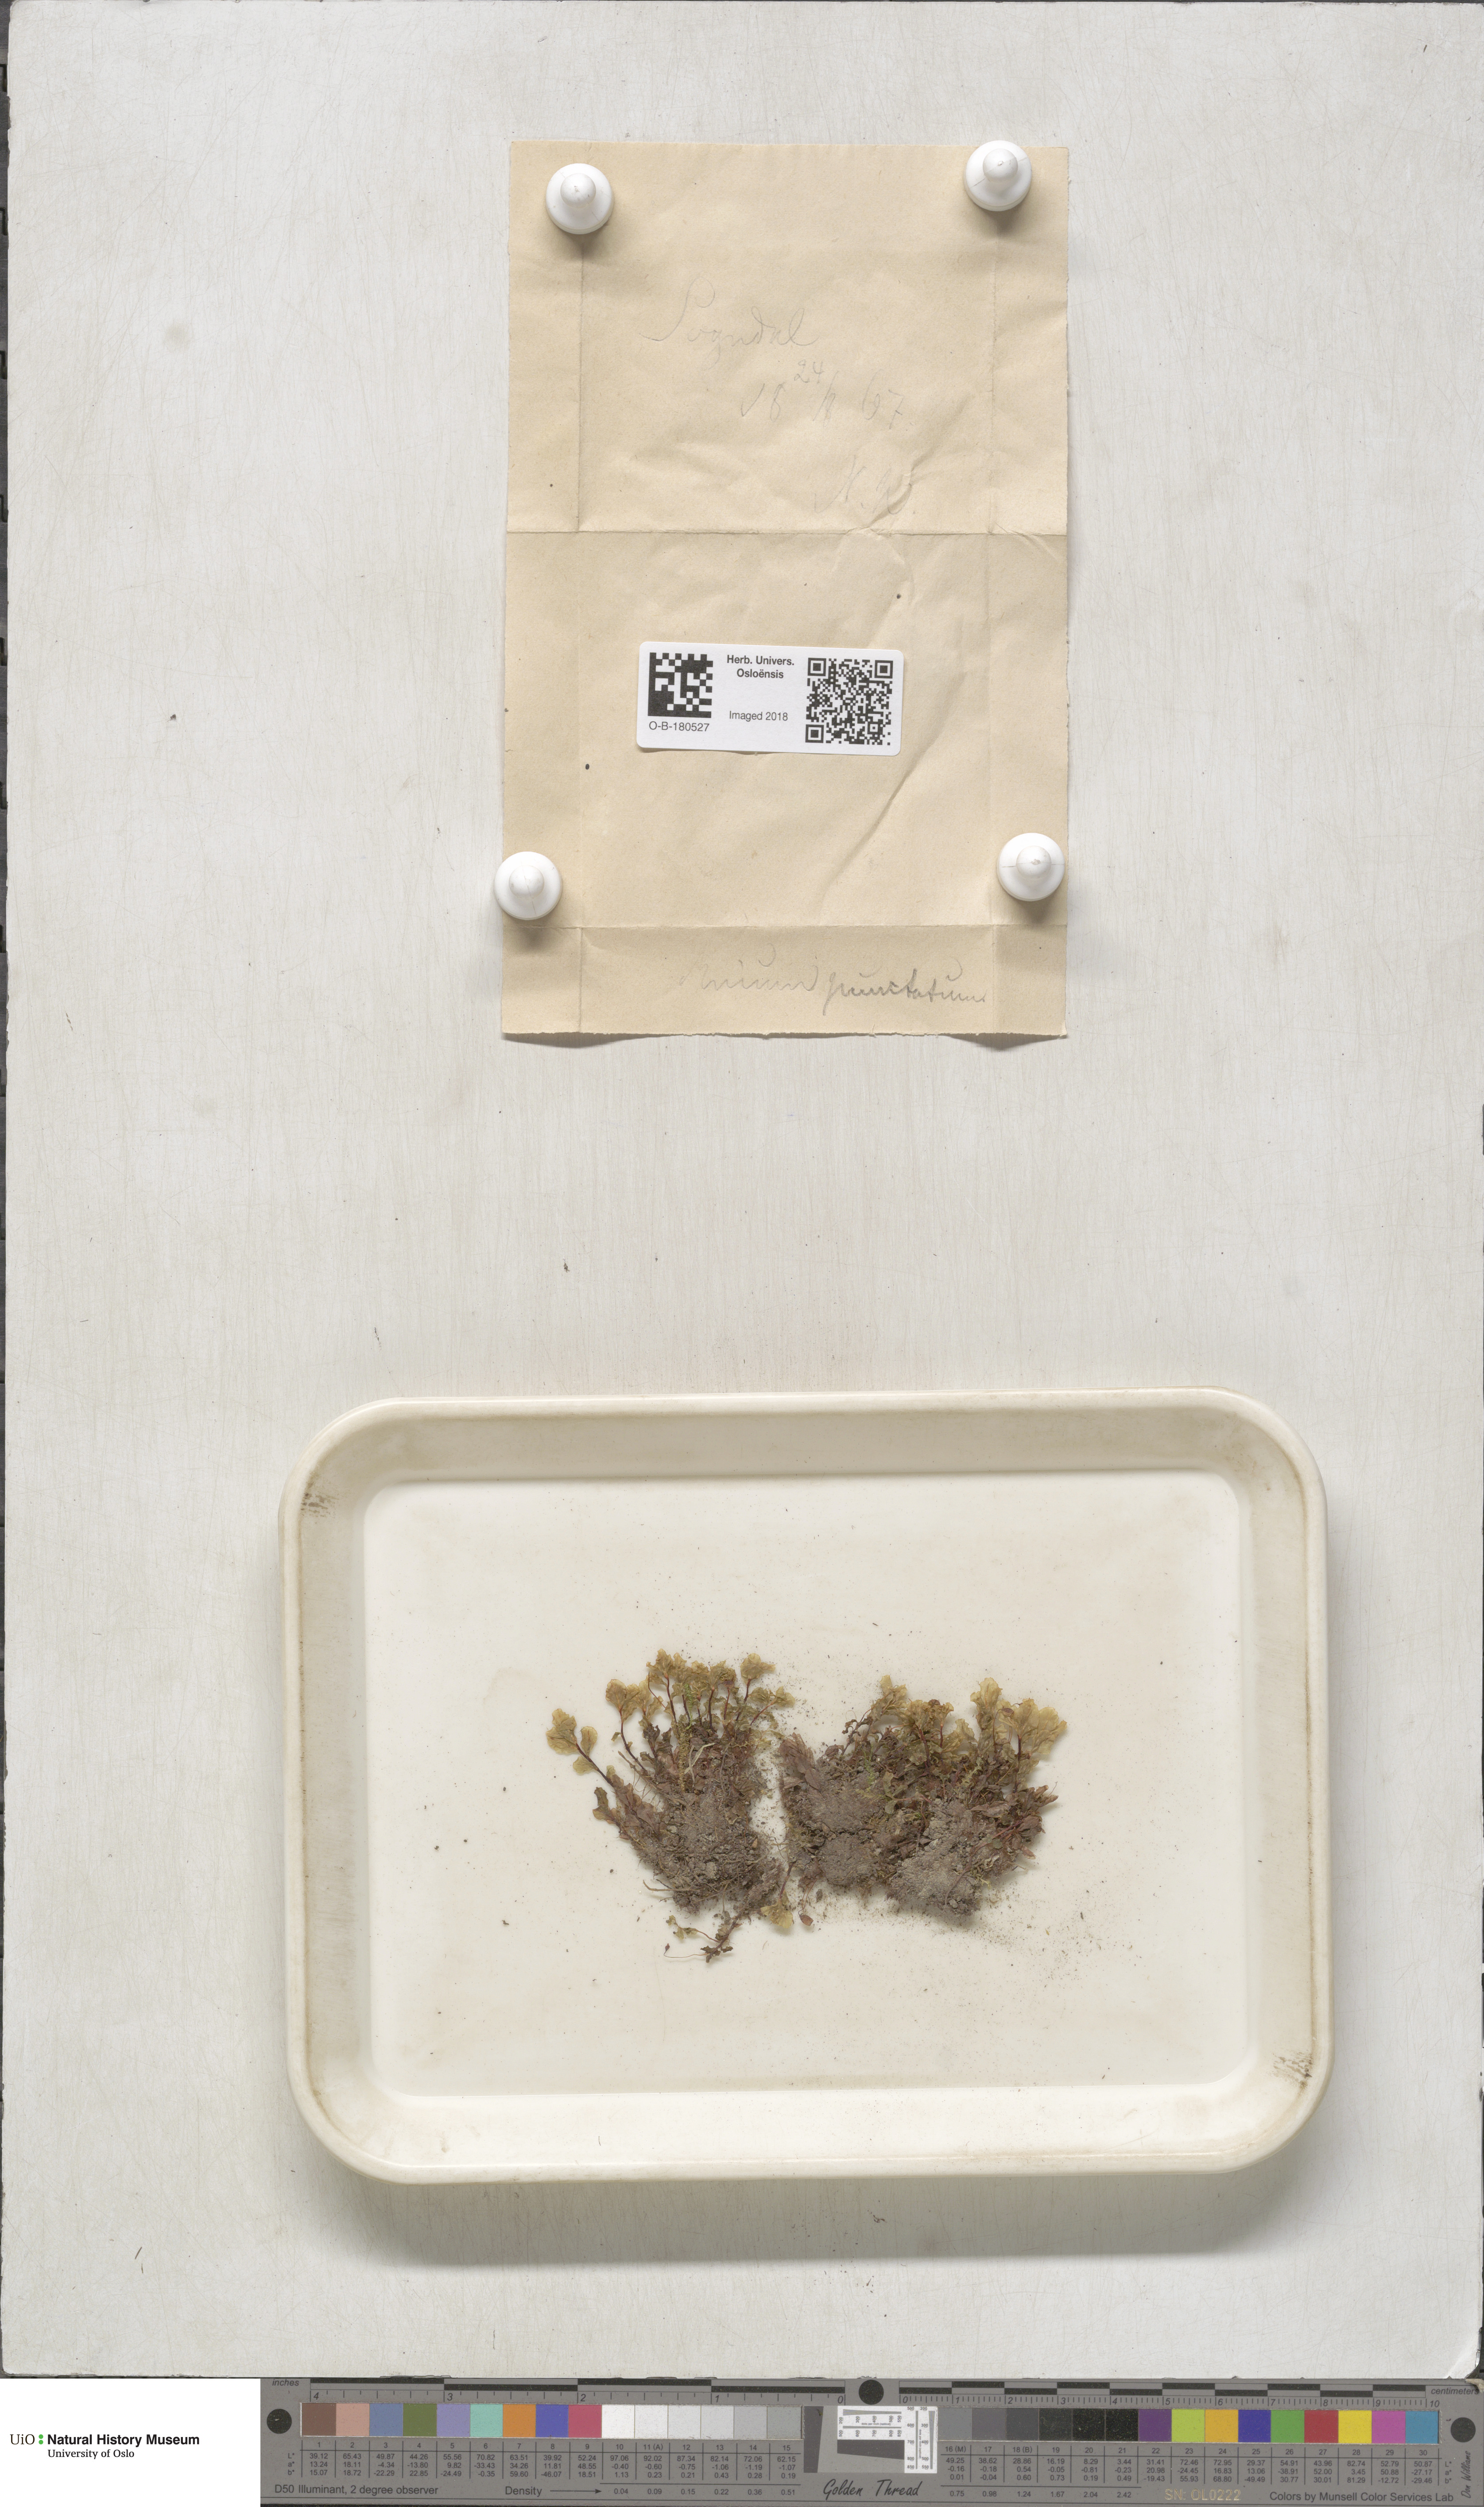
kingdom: Plantae
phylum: Bryophyta
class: Bryopsida
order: Bryales
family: Mniaceae
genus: Rhizomnium
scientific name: Rhizomnium punctatum
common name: Dotted leafy moss
